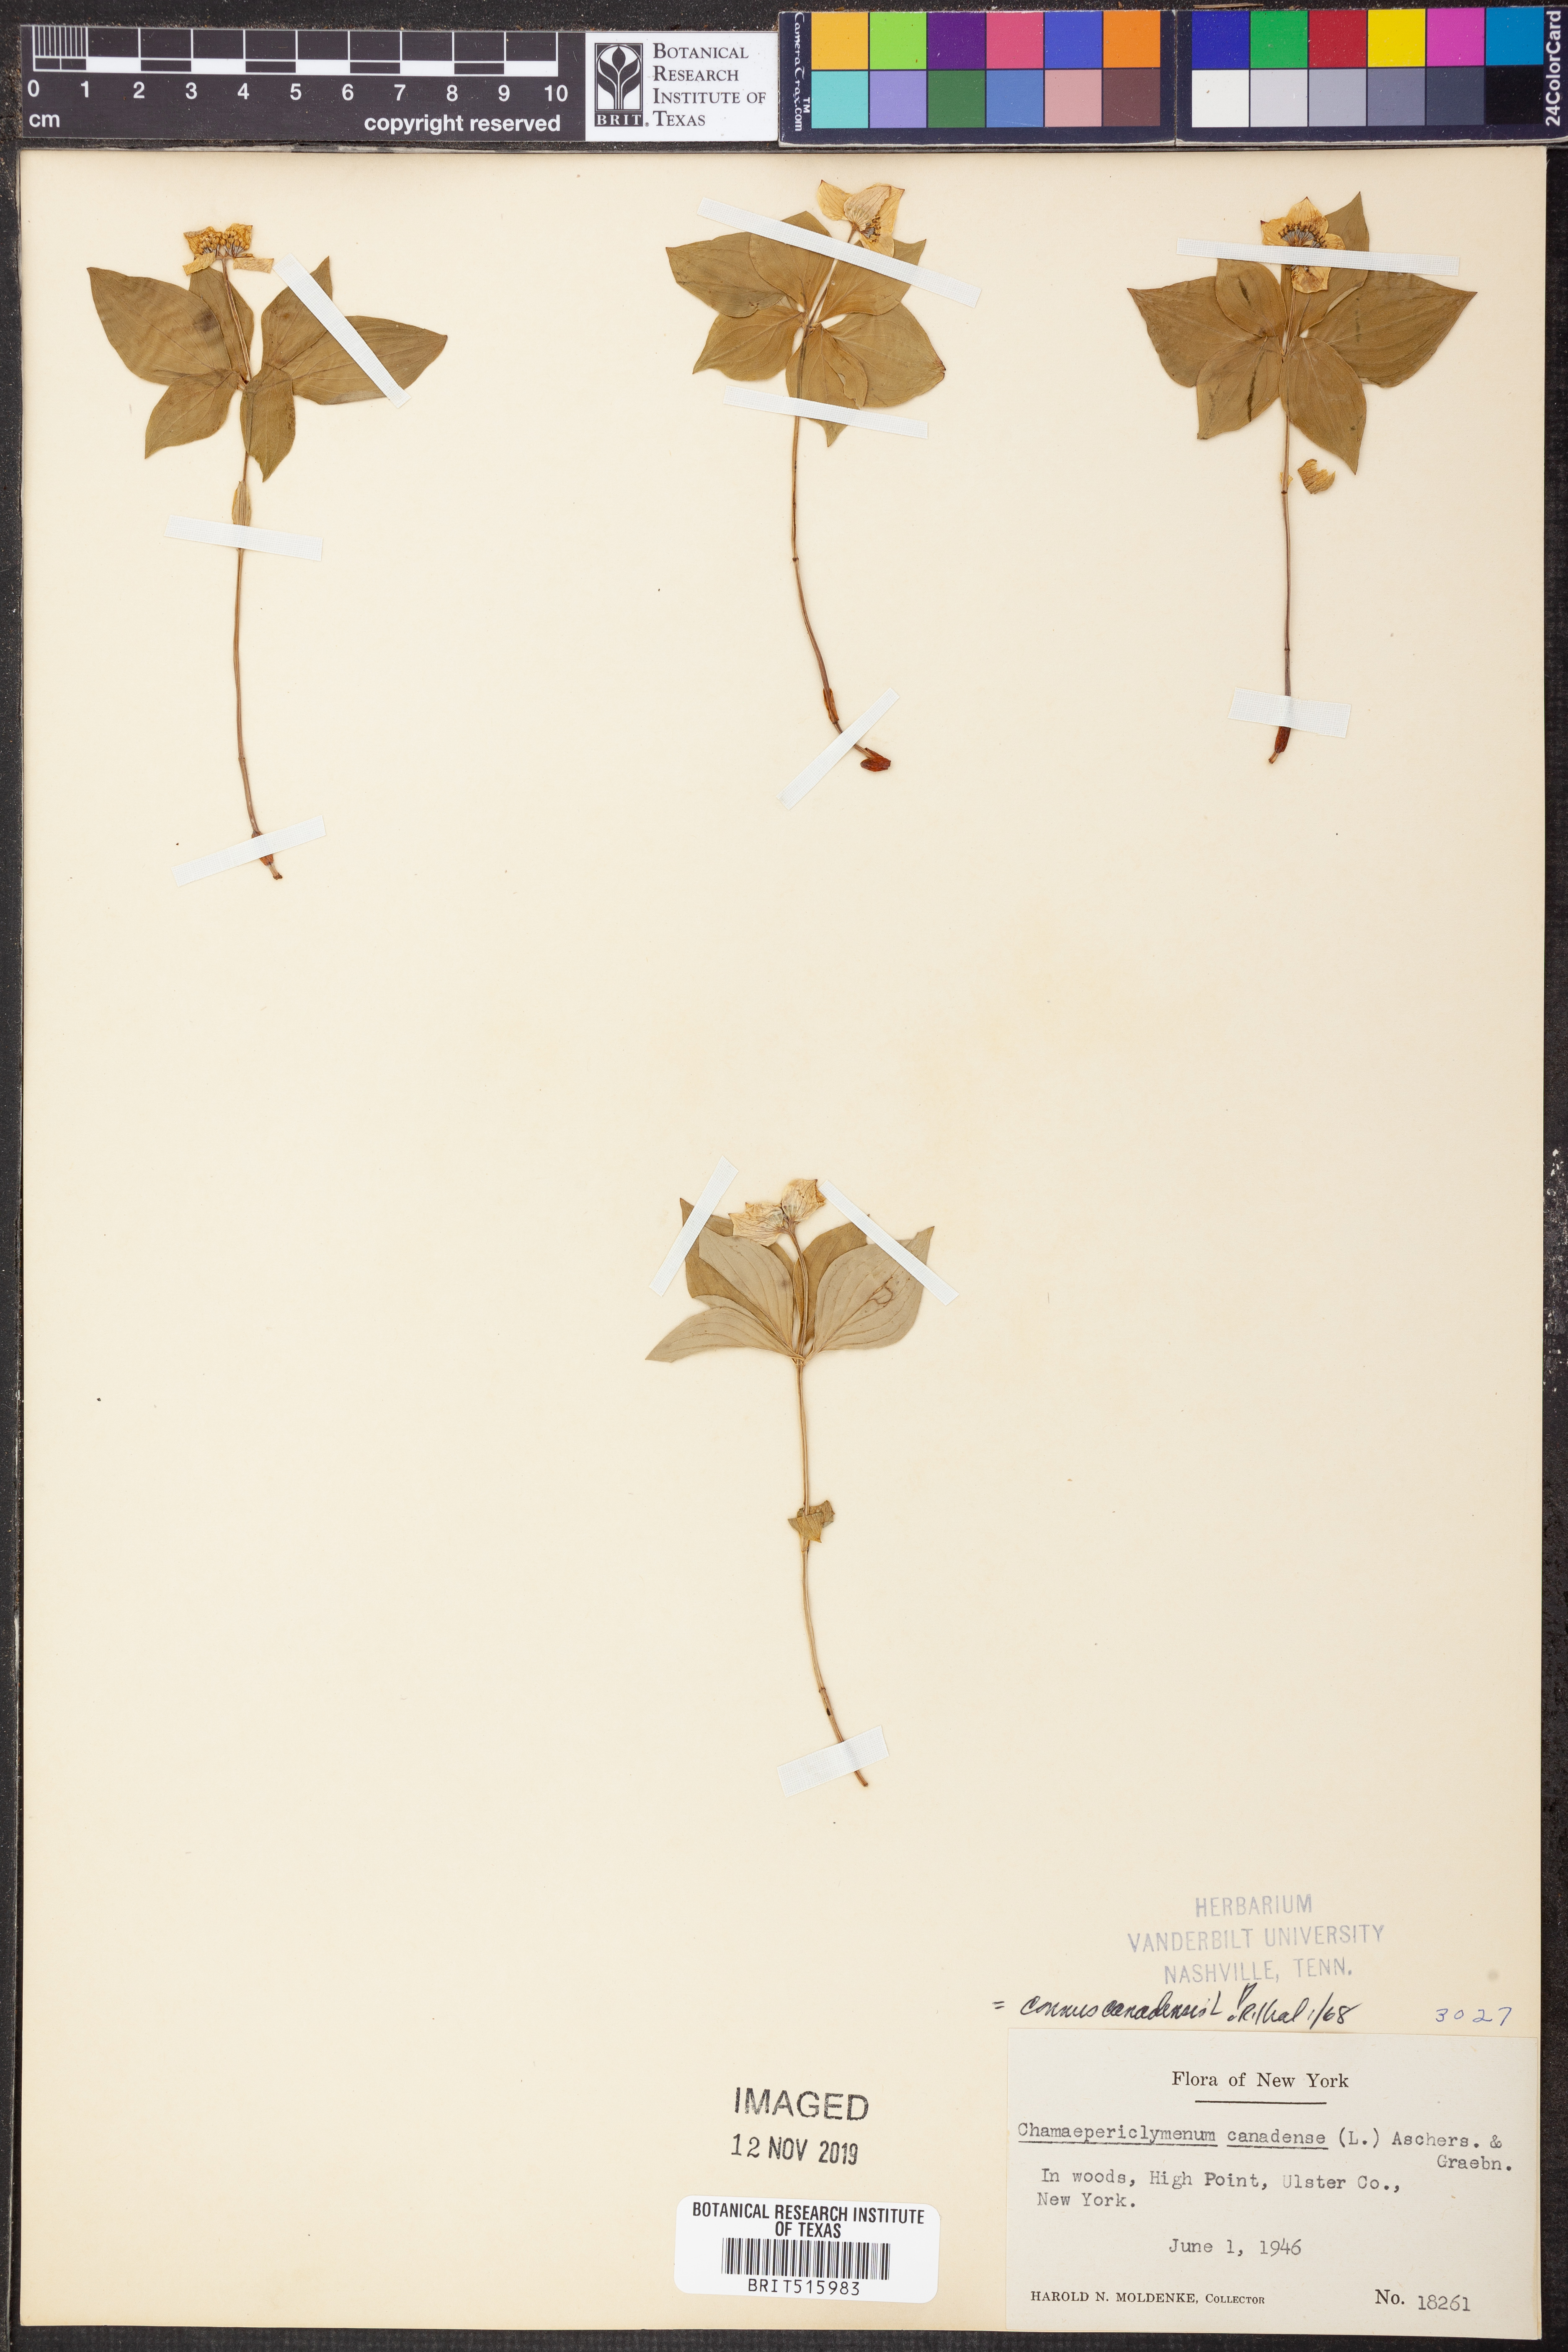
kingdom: Plantae
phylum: Tracheophyta
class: Magnoliopsida
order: Cornales
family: Cornaceae
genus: Cornus
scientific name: Cornus canadensis
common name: Creeping dogwood
